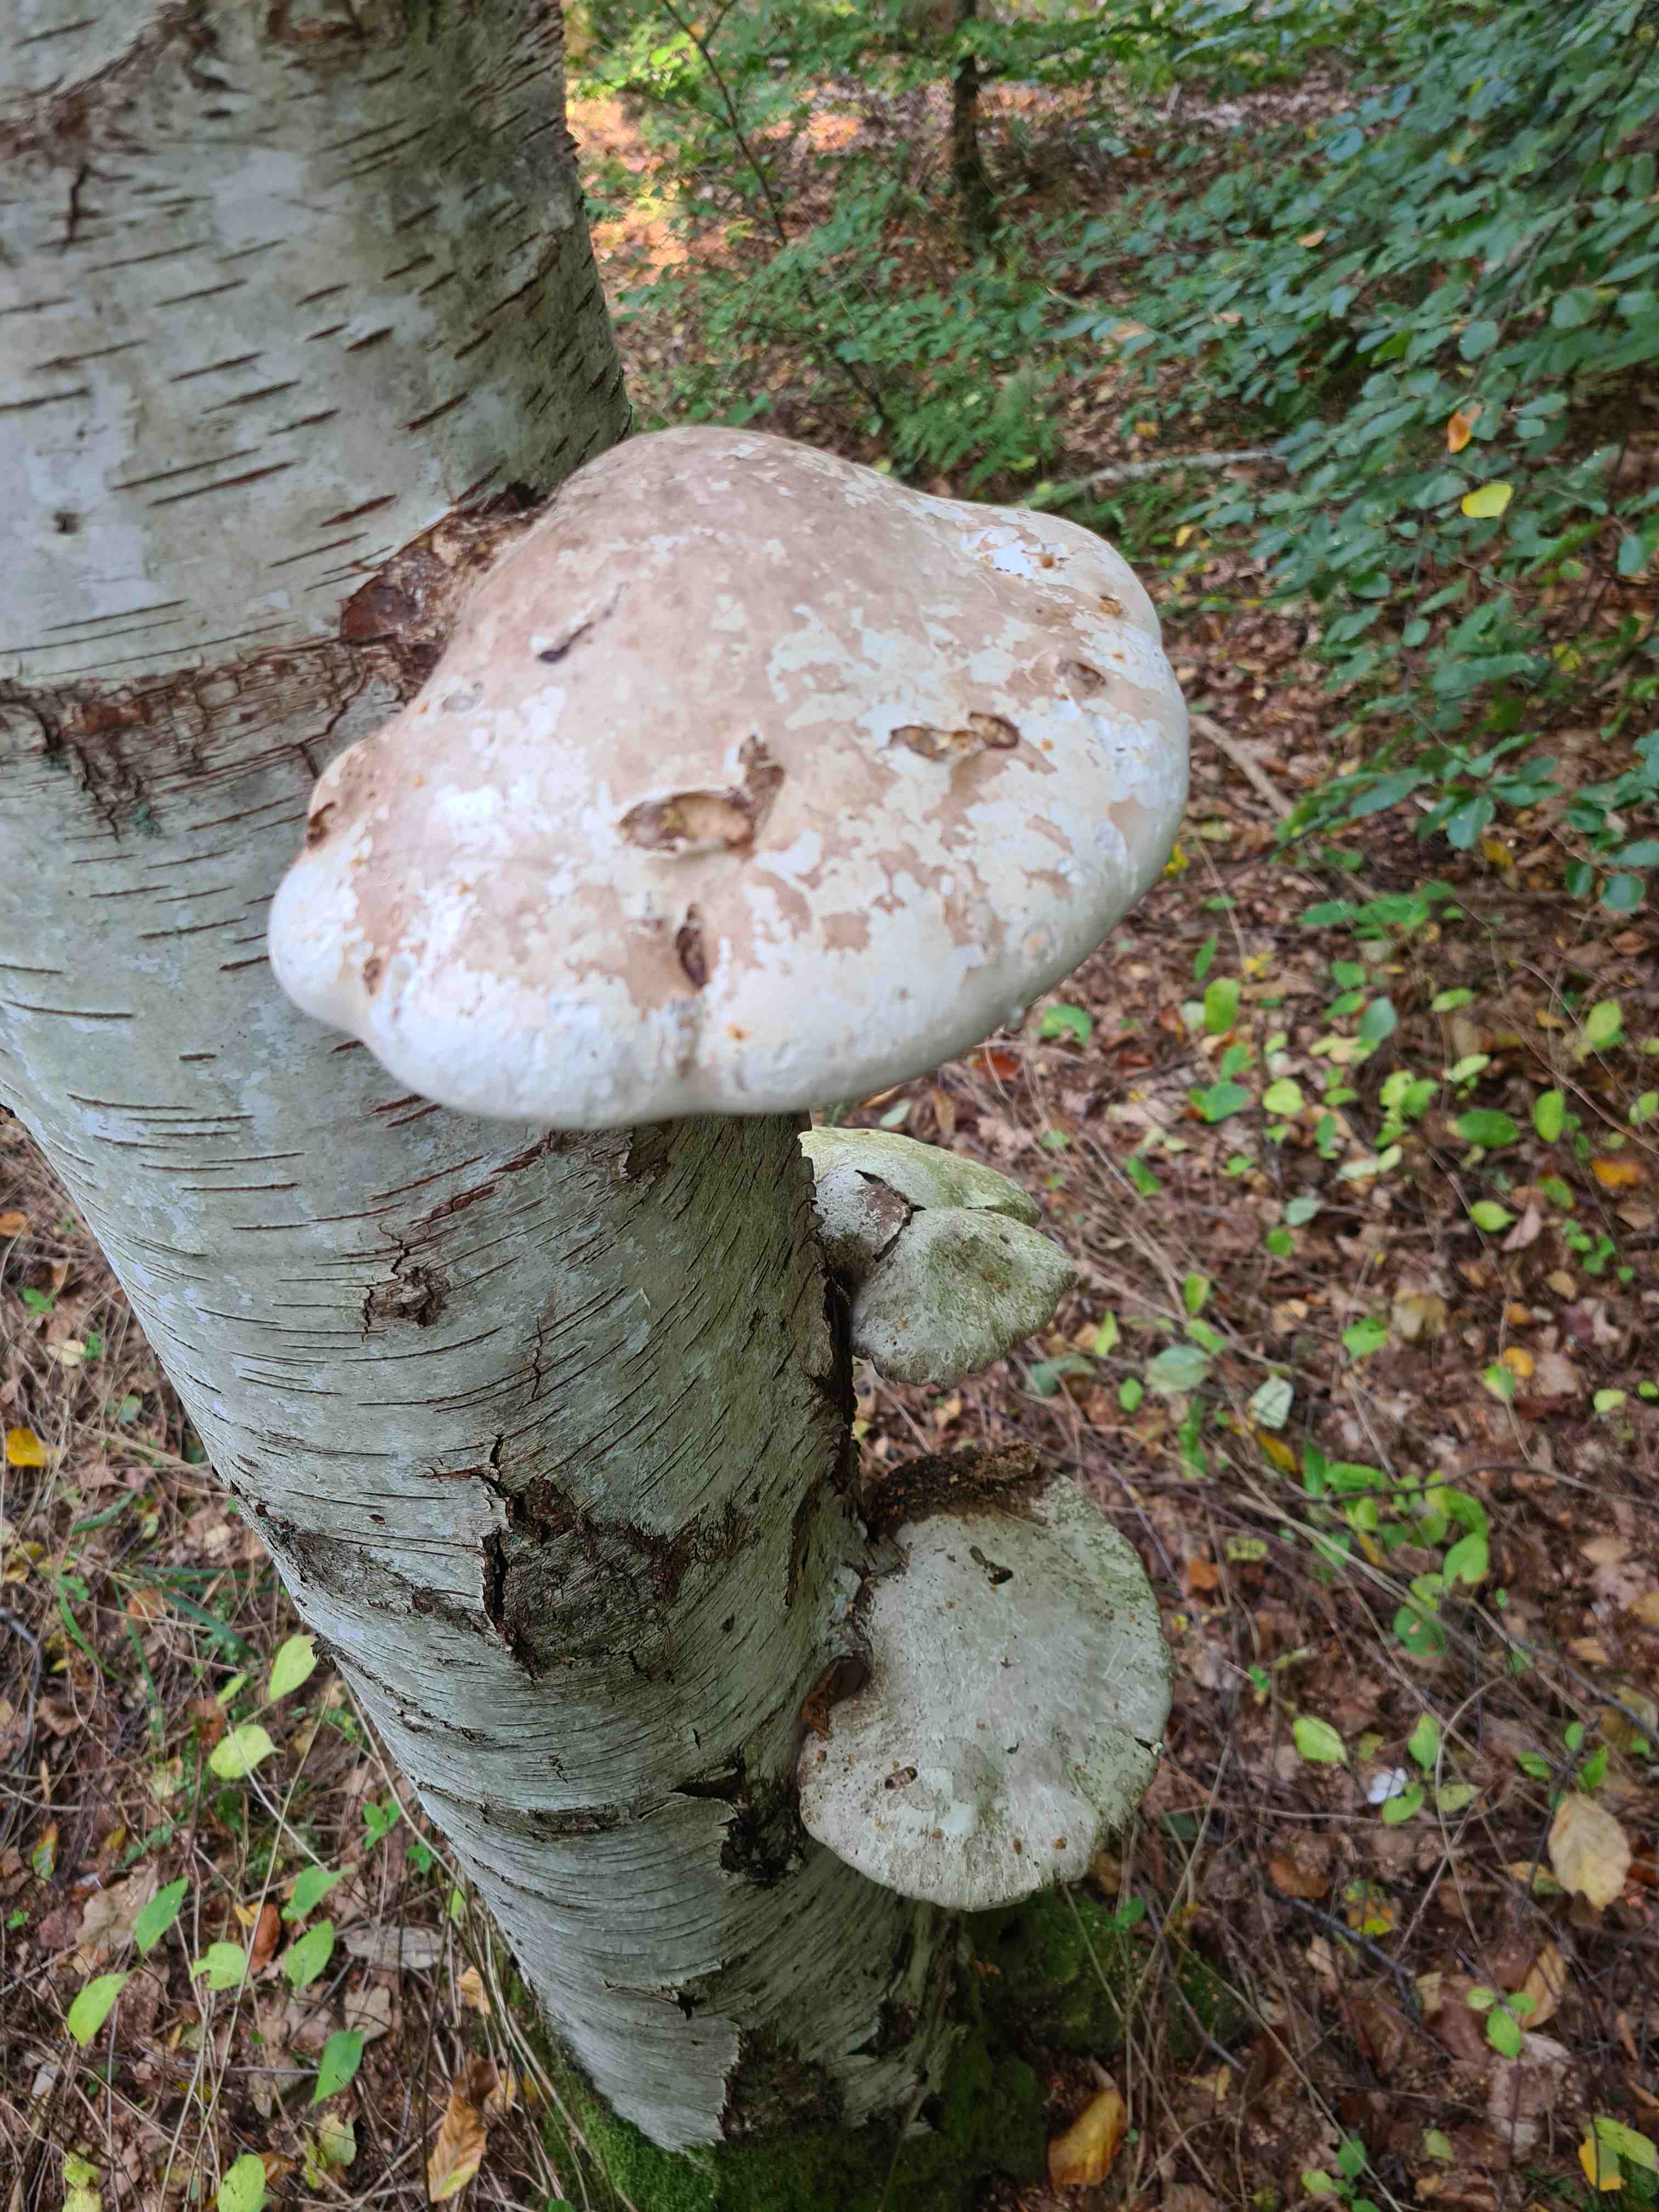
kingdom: Fungi
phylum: Basidiomycota
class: Agaricomycetes
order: Polyporales
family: Fomitopsidaceae
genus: Fomitopsis
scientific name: Fomitopsis betulina
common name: birkeporesvamp
